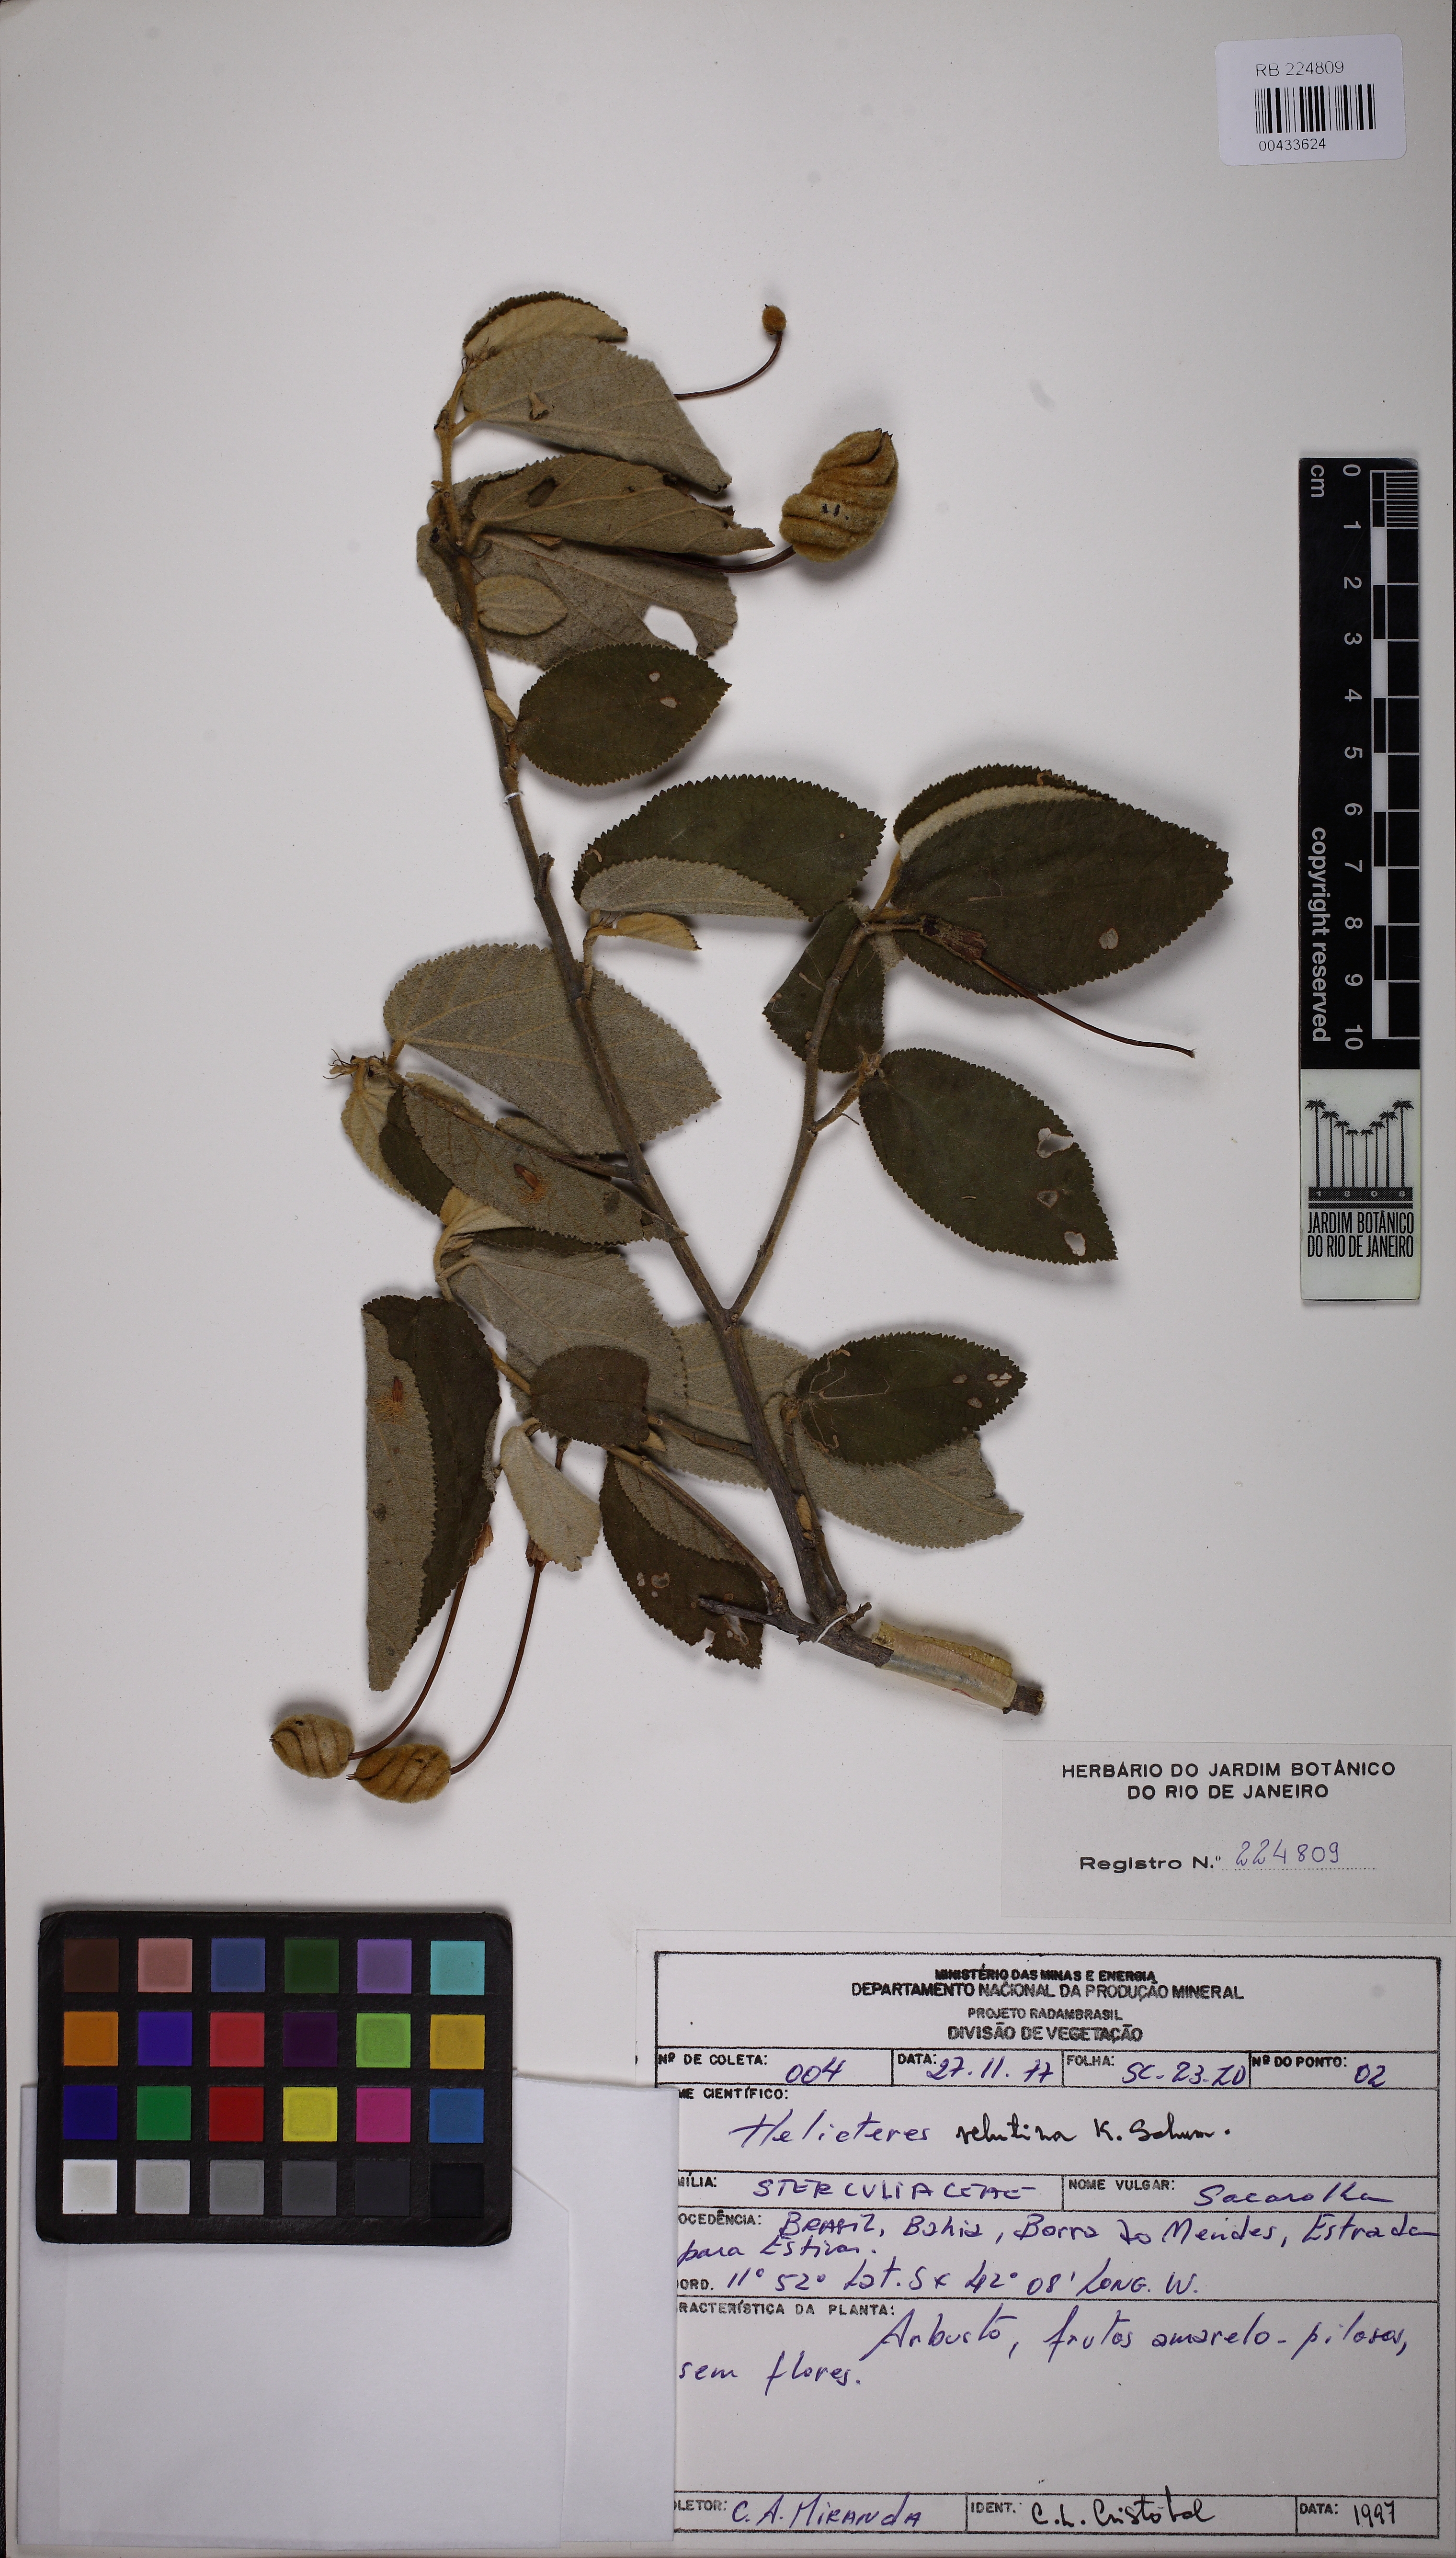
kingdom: Plantae
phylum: Tracheophyta
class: Magnoliopsida
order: Malvales
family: Malvaceae
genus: Helicteres
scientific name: Helicteres velutina
